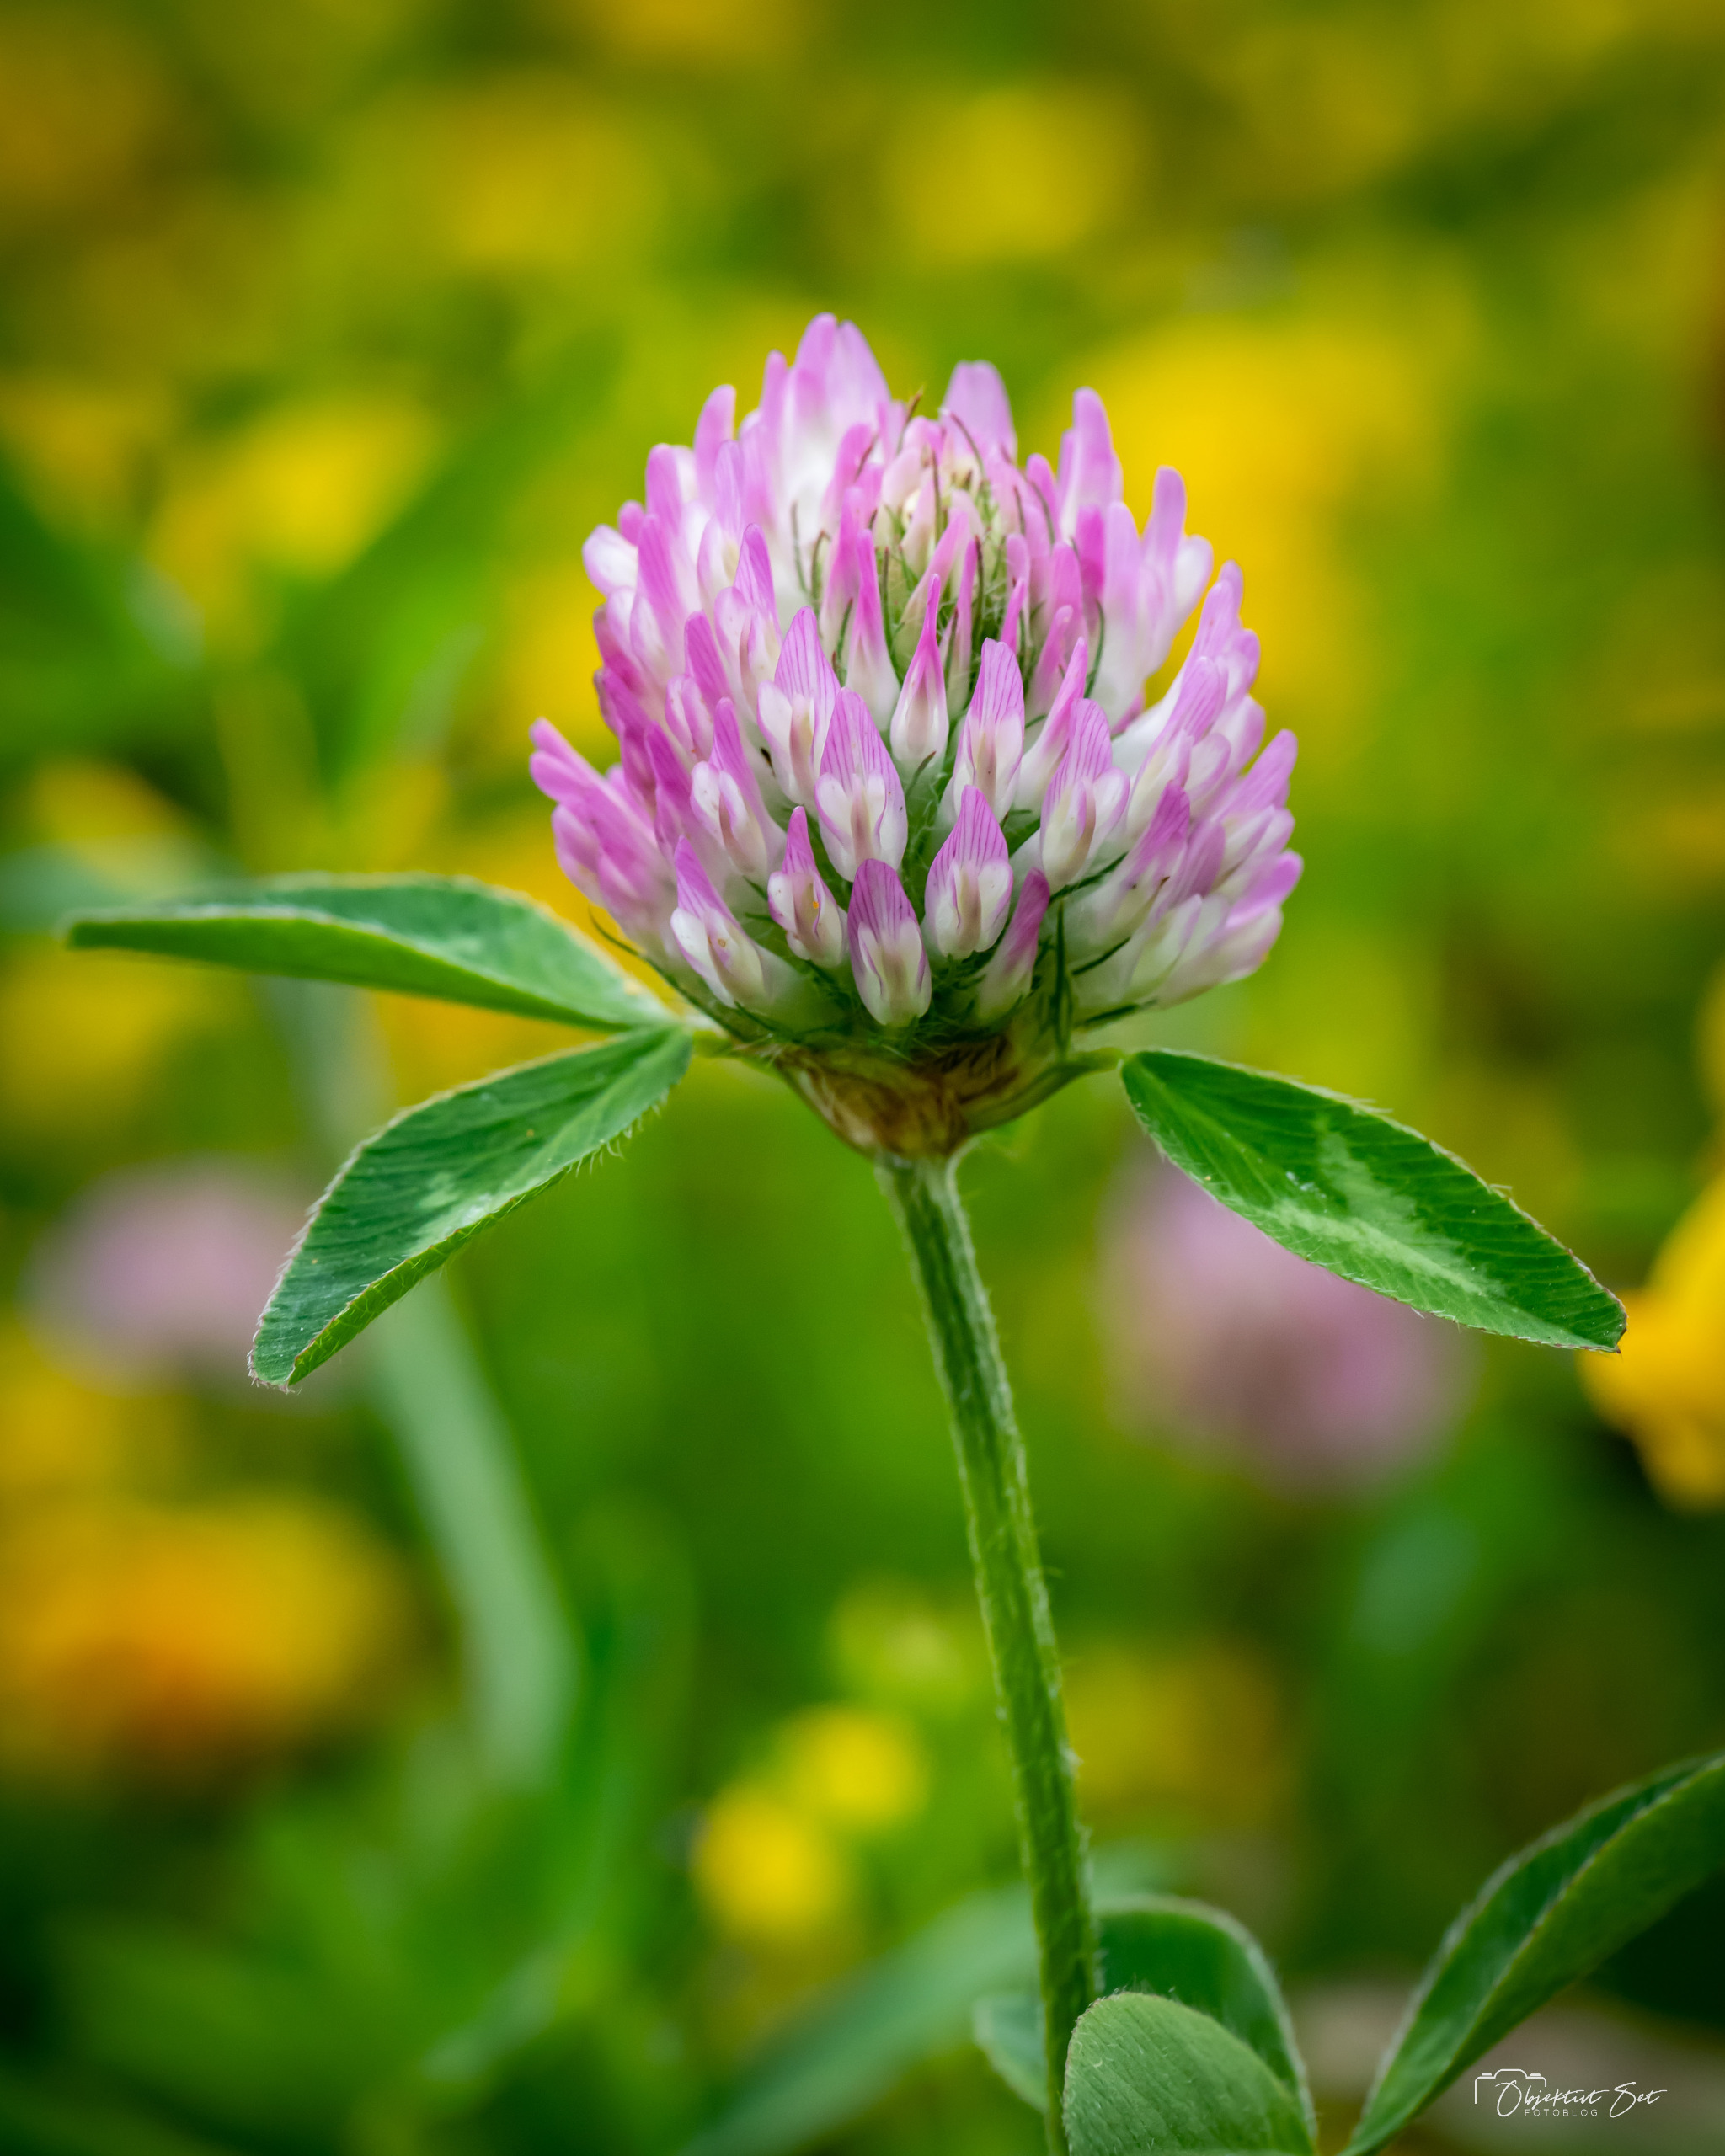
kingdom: Plantae
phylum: Tracheophyta
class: Magnoliopsida
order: Fabales
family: Fabaceae
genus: Trifolium
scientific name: Trifolium pratense
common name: Rød-kløver
